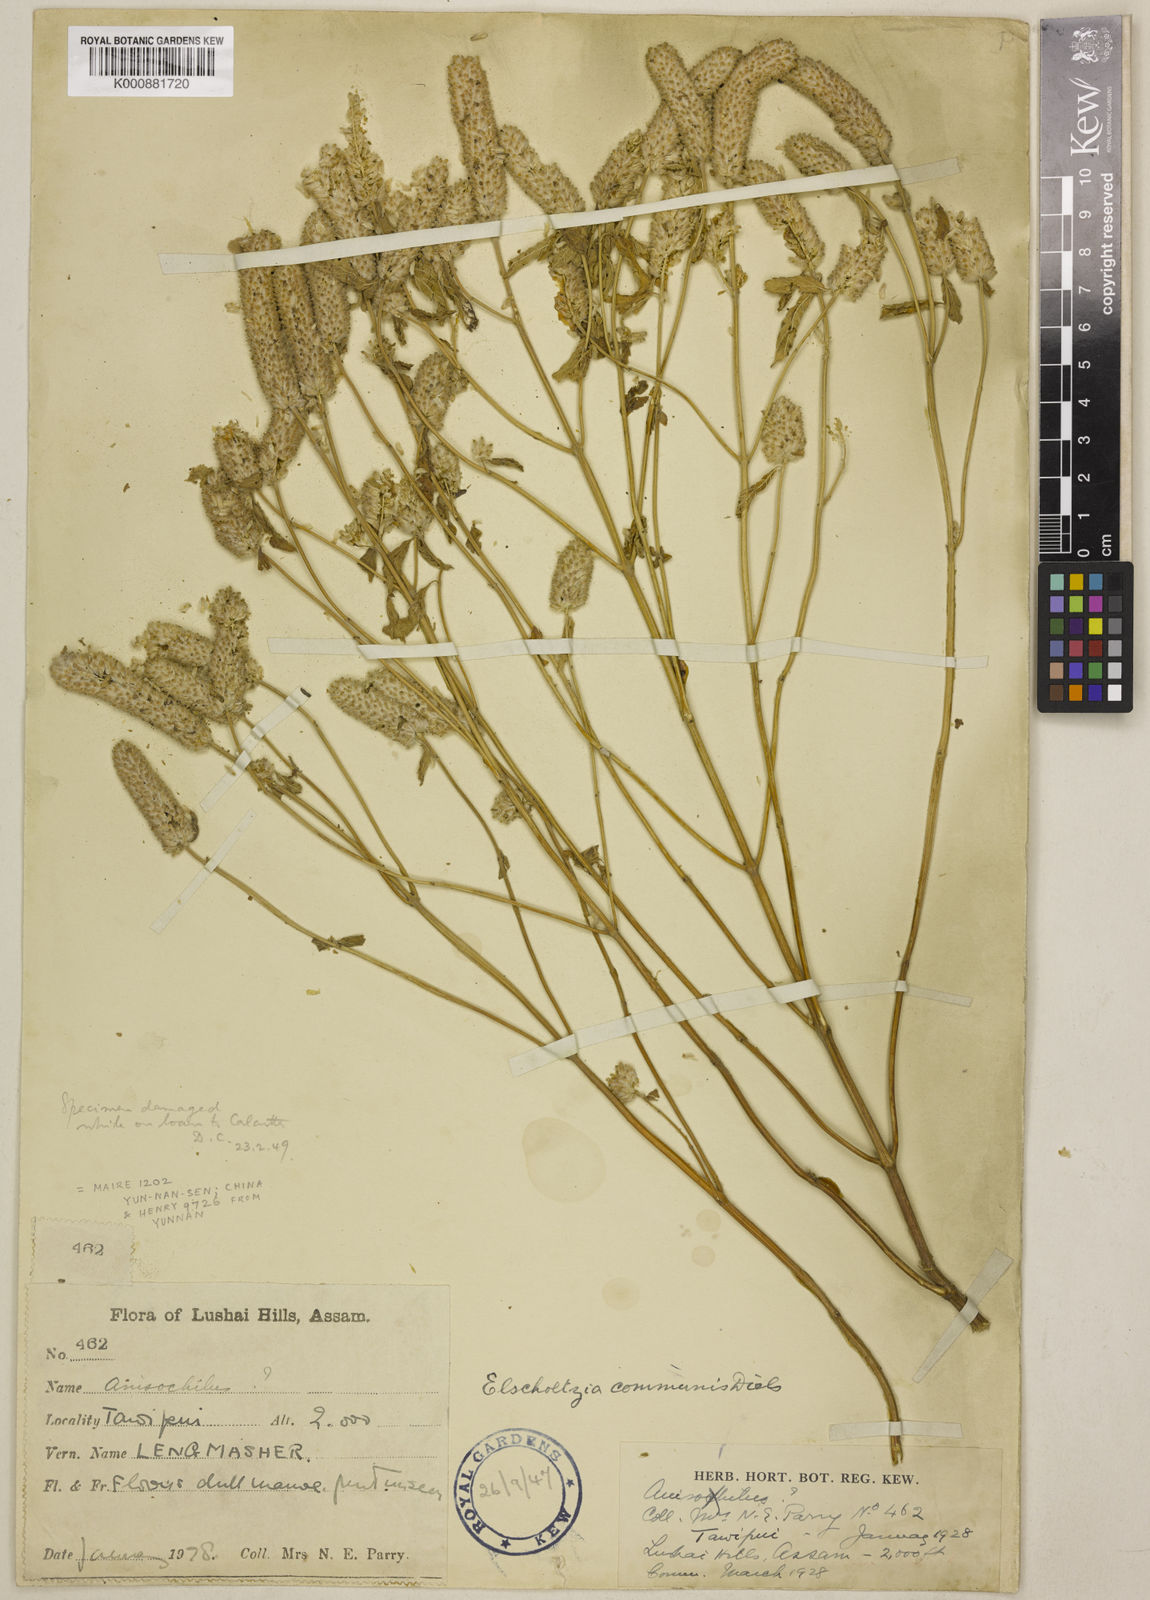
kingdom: Plantae
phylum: Tracheophyta
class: Magnoliopsida
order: Lamiales
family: Lamiaceae
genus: Elsholtzia
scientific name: Elsholtzia communis
